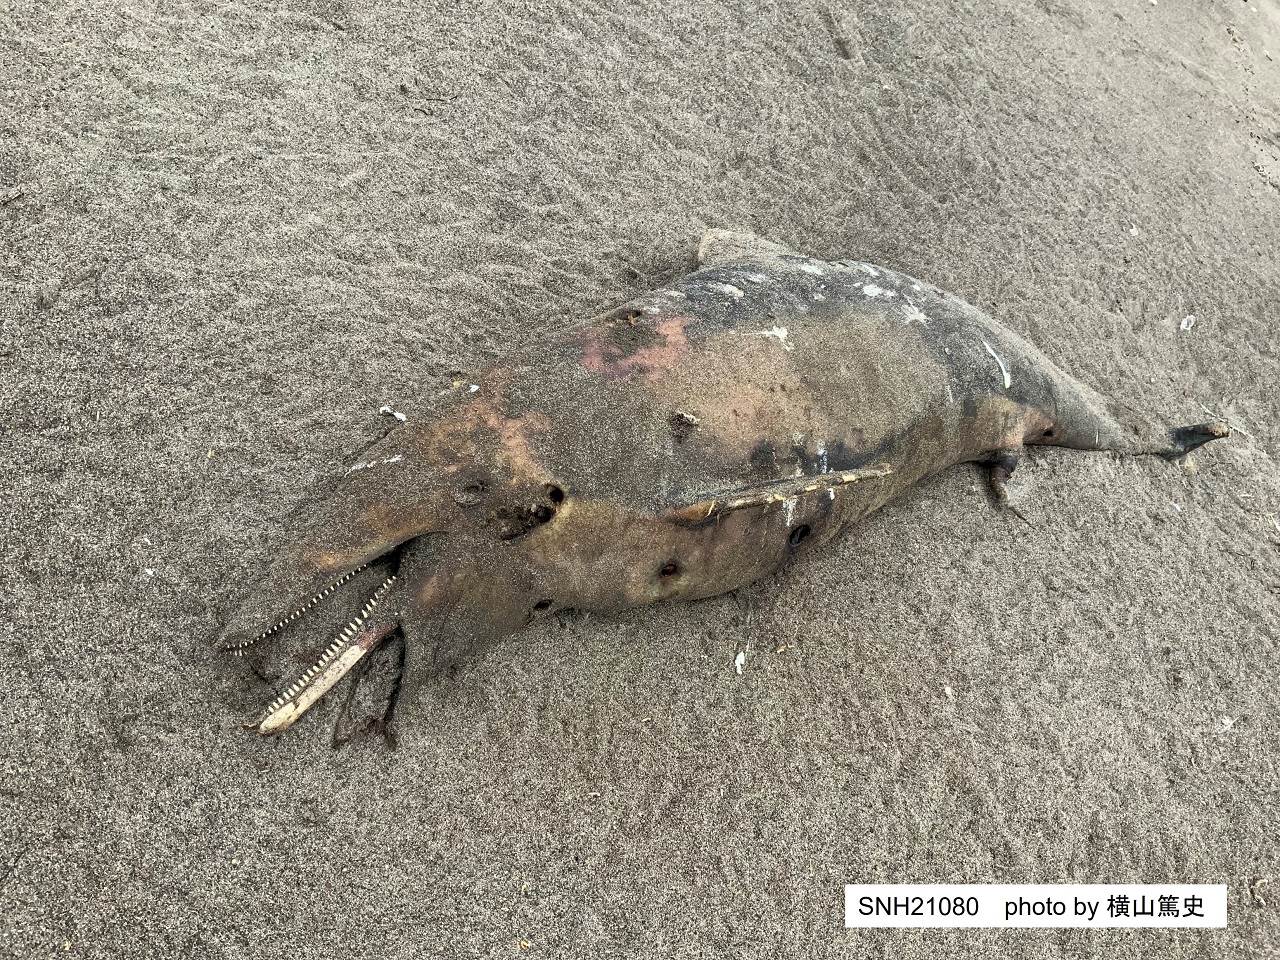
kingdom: Animalia
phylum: Chordata
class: Mammalia
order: Cetacea
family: Delphinidae
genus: Lagenorhynchus
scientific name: Lagenorhynchus obliquidens
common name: Pacific white-sided dolphin
